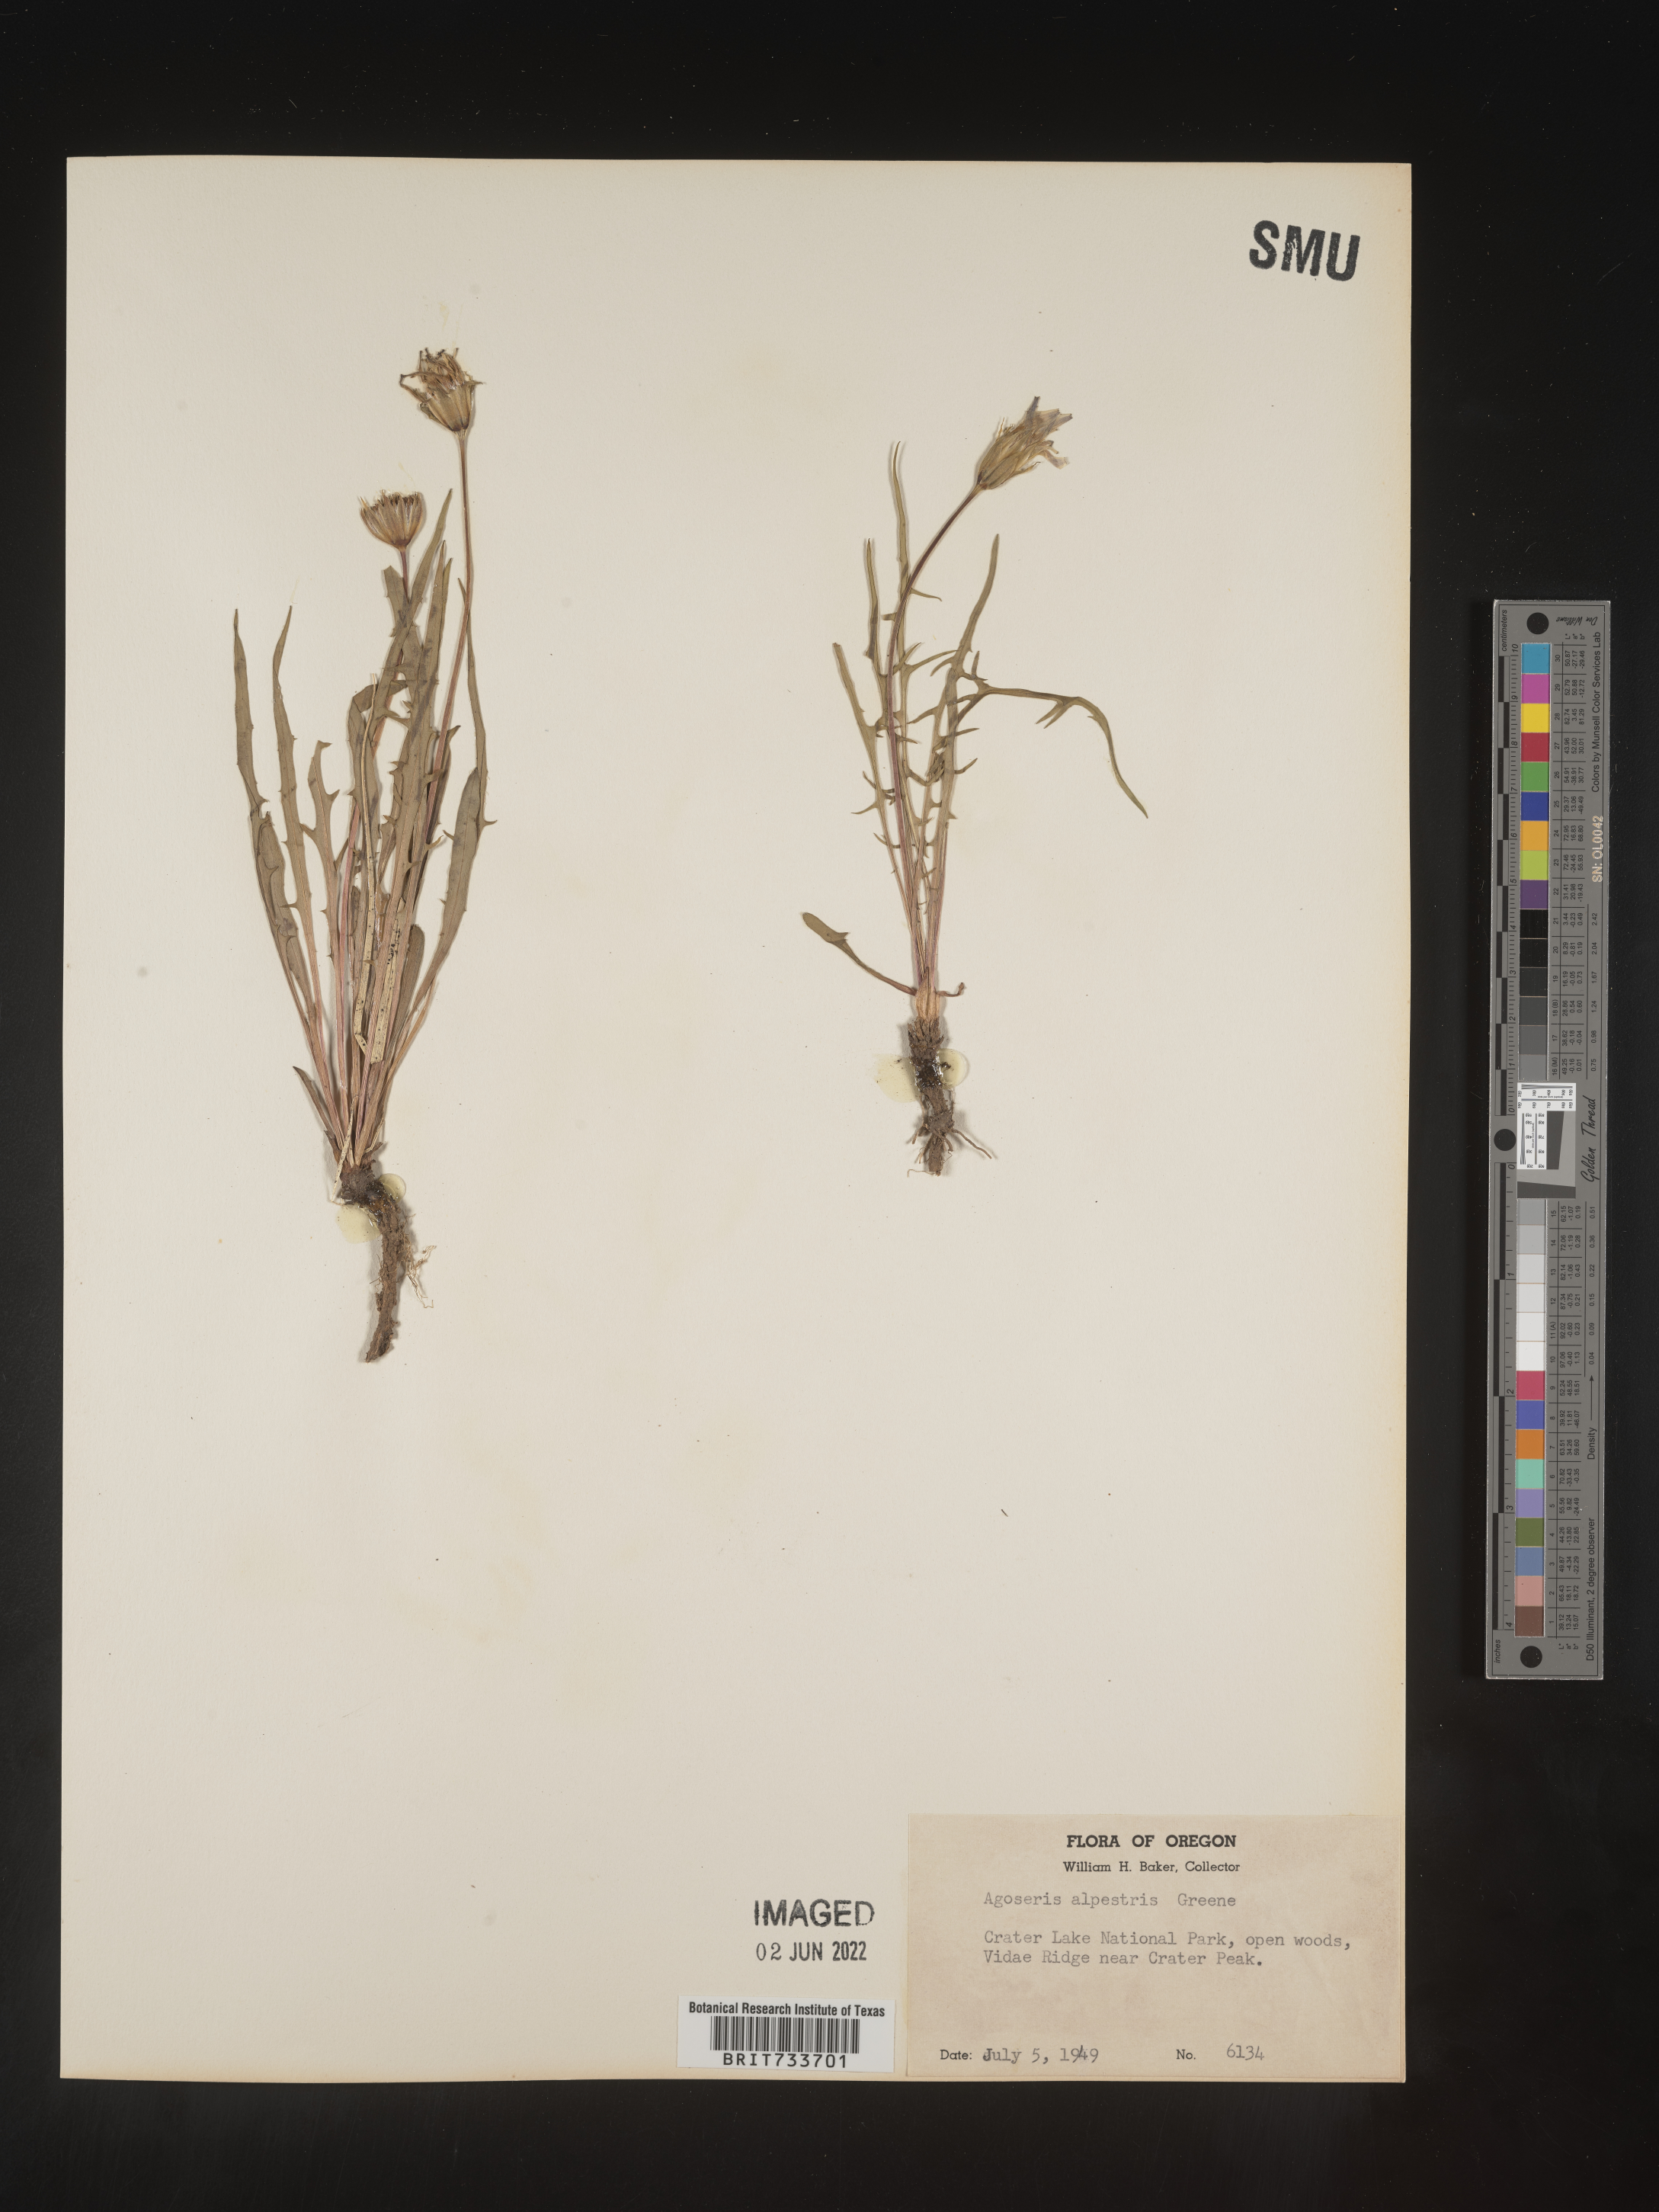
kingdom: Plantae
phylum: Tracheophyta
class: Magnoliopsida
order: Asterales
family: Asteraceae
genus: Microseris
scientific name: Microseris
